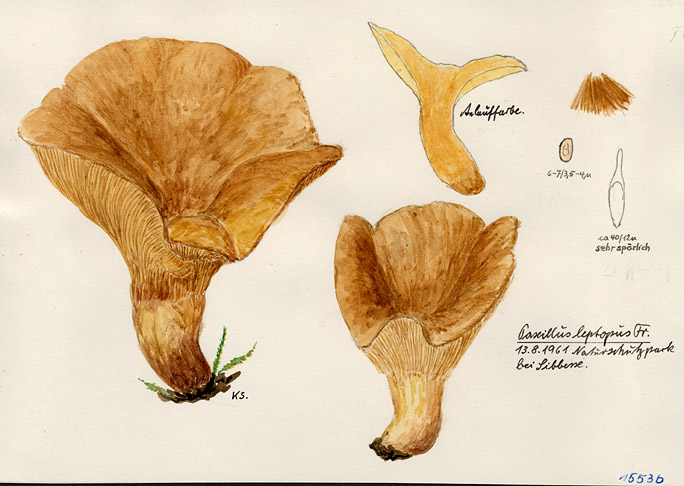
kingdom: Fungi
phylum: Basidiomycota
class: Agaricomycetes
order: Boletales
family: Paxillaceae
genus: Paxillus
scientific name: Paxillus rubicundulus
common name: Alder rollrim
